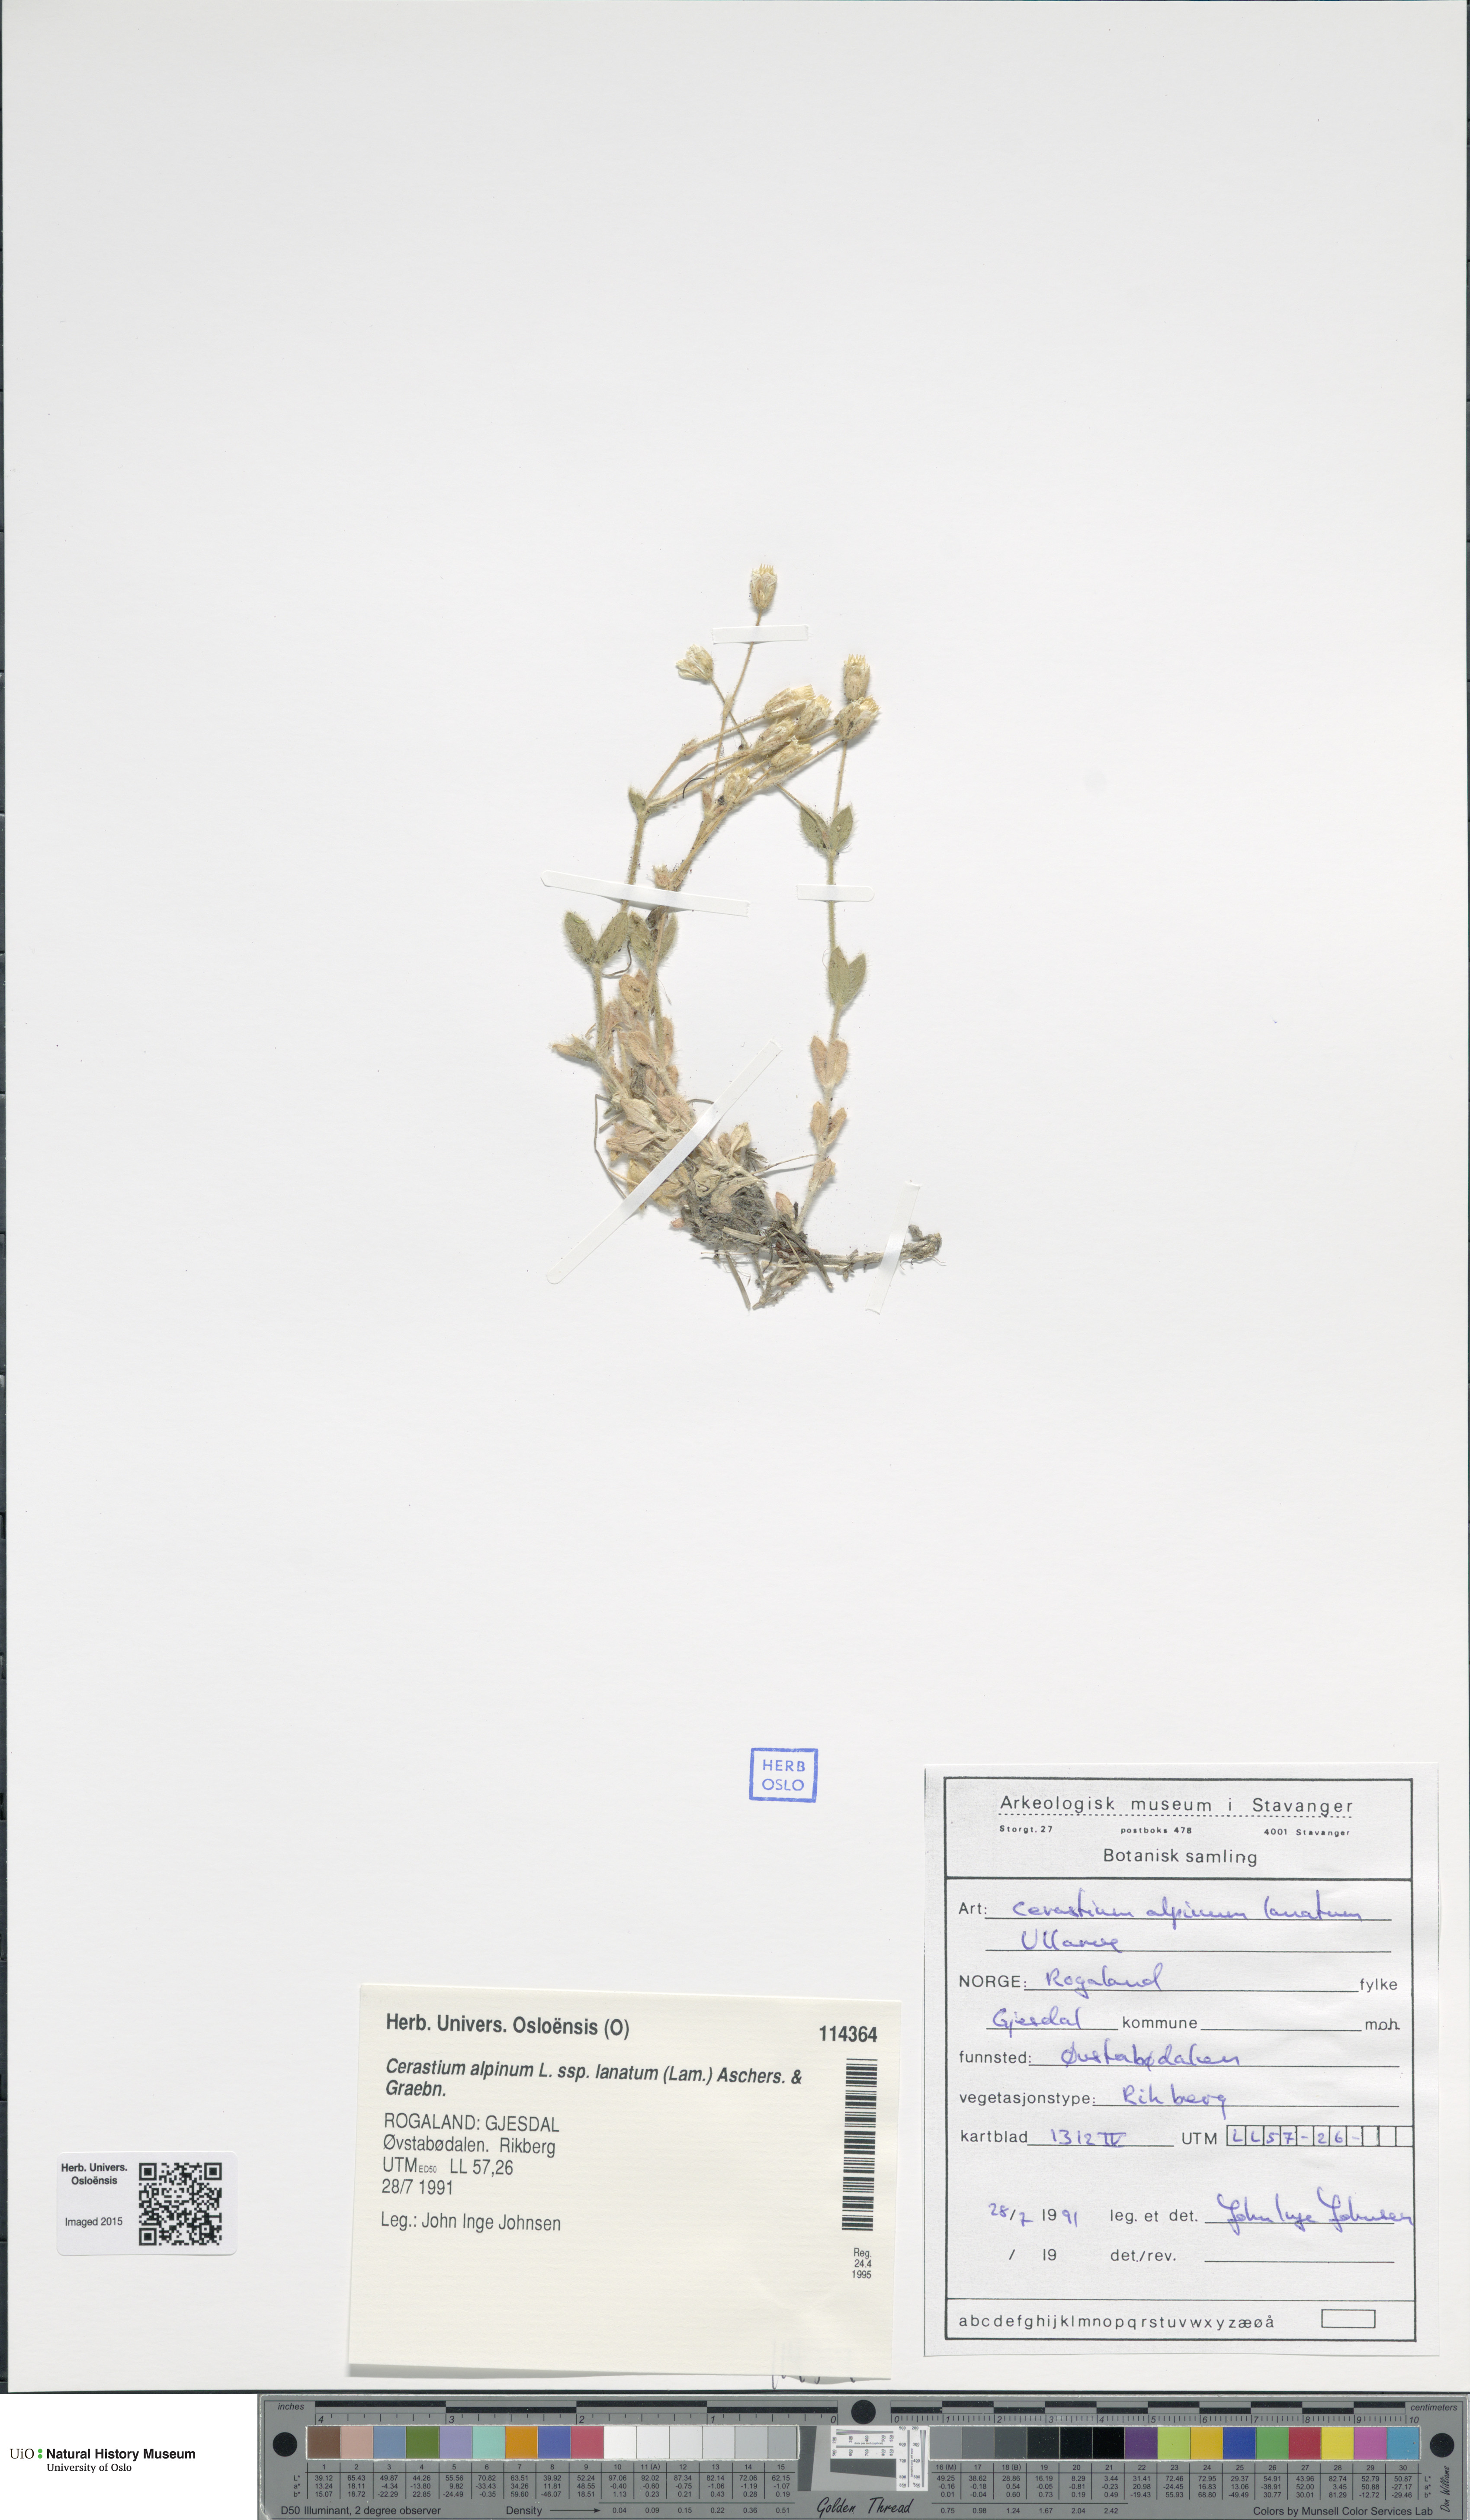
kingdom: Plantae
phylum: Tracheophyta
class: Magnoliopsida
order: Caryophyllales
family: Caryophyllaceae
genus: Cerastium
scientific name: Cerastium alpinum
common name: Alpine mouse-ear
